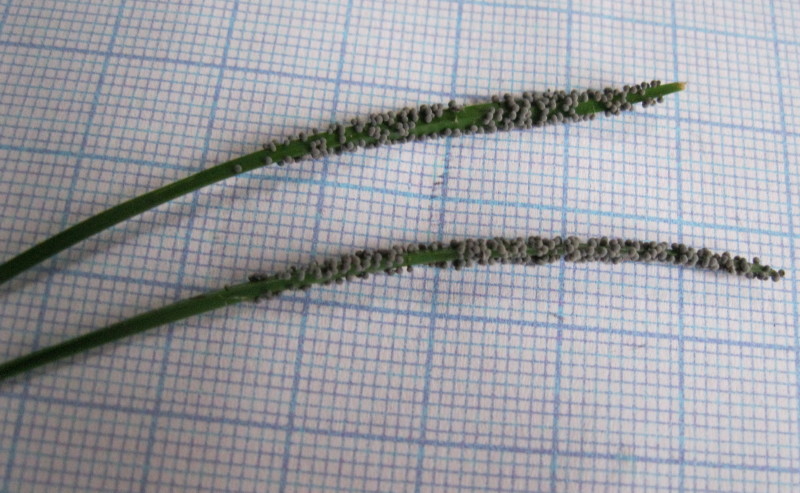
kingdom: Protozoa
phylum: Mycetozoa
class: Myxomycetes
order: Physarales
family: Physaraceae
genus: Badhamia
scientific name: Badhamia foliicola
